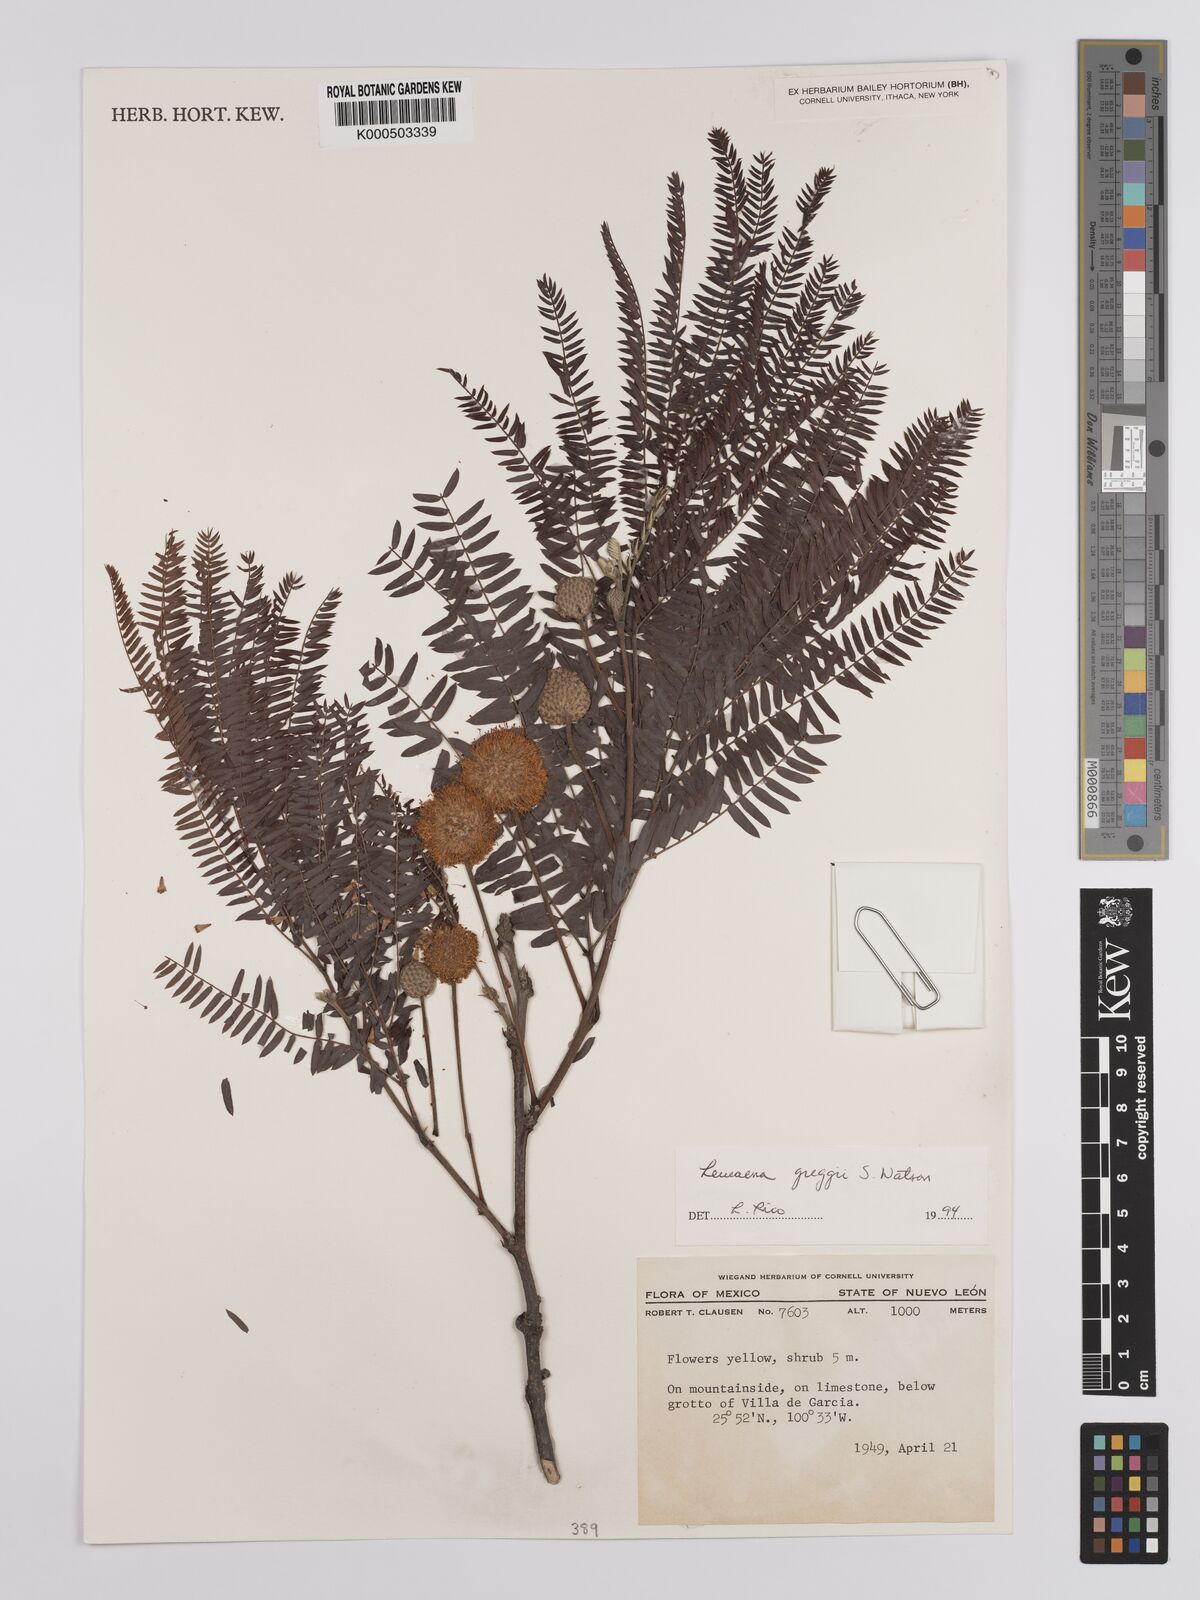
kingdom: Plantae
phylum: Tracheophyta
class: Magnoliopsida
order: Fabales
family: Fabaceae
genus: Leucaena
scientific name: Leucaena greggii
